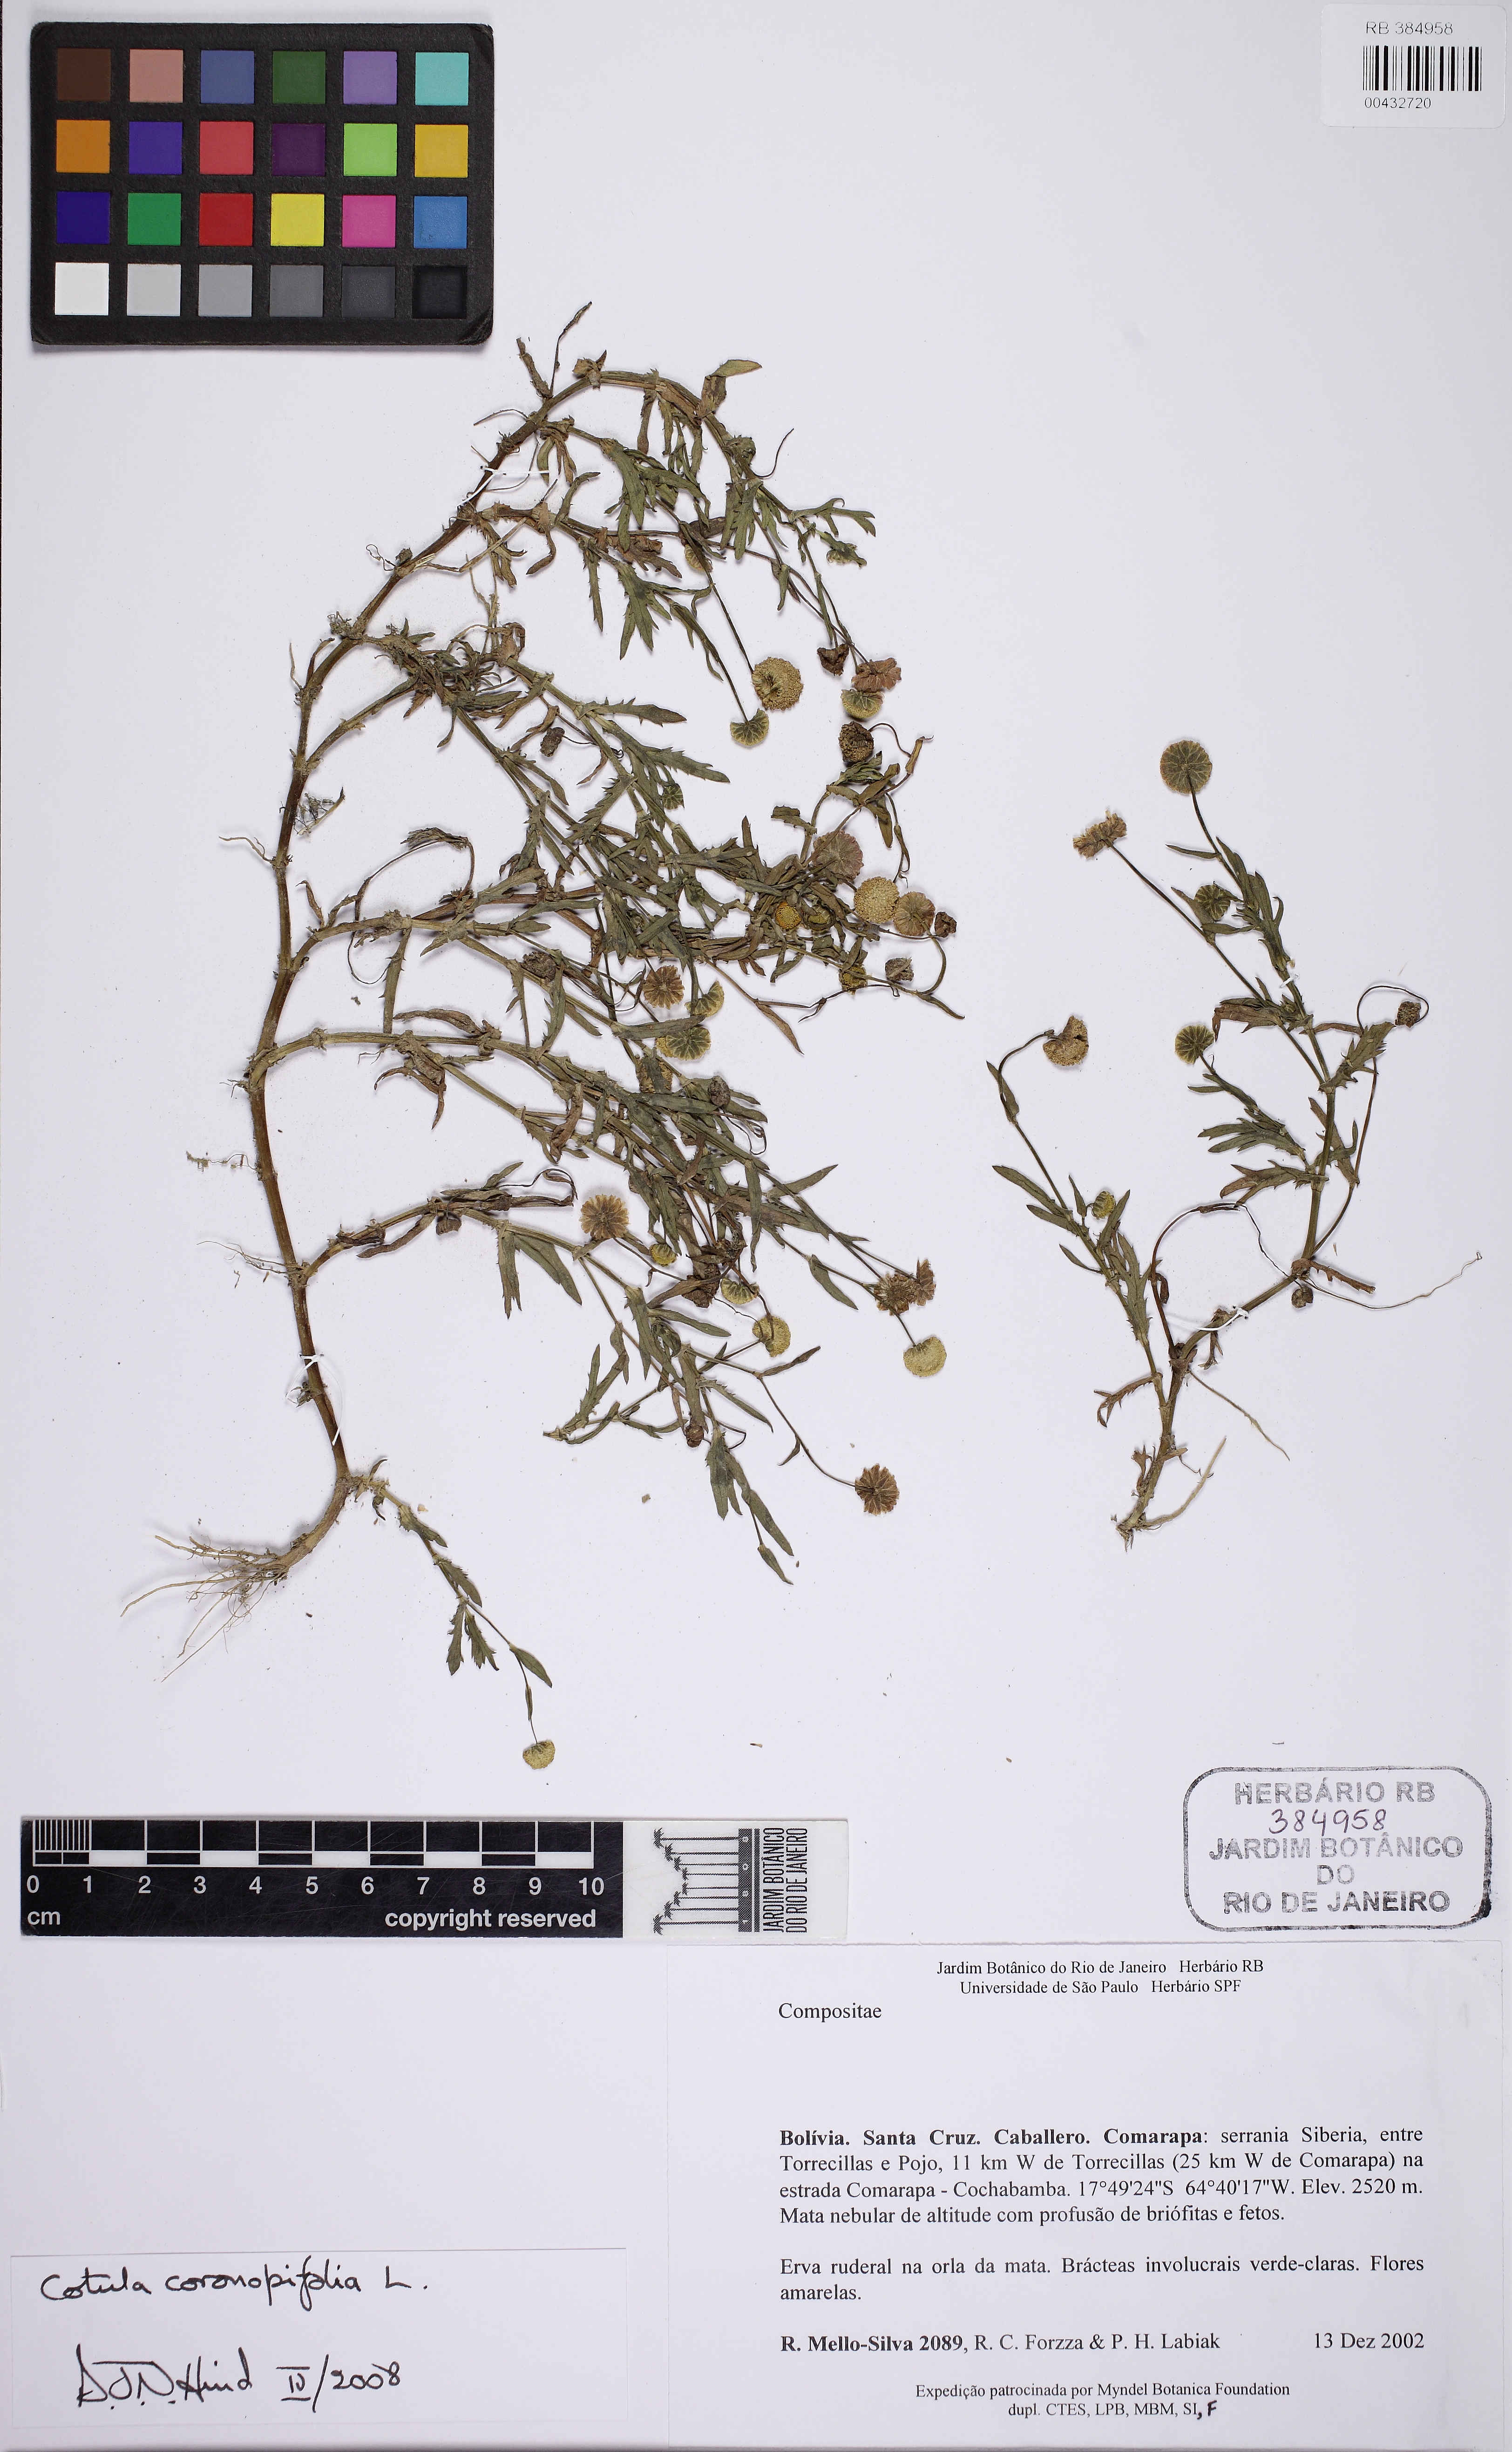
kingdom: Plantae
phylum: Tracheophyta
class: Magnoliopsida
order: Asterales
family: Asteraceae
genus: Cotula
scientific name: Cotula coronopifolia
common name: Buttonweed
